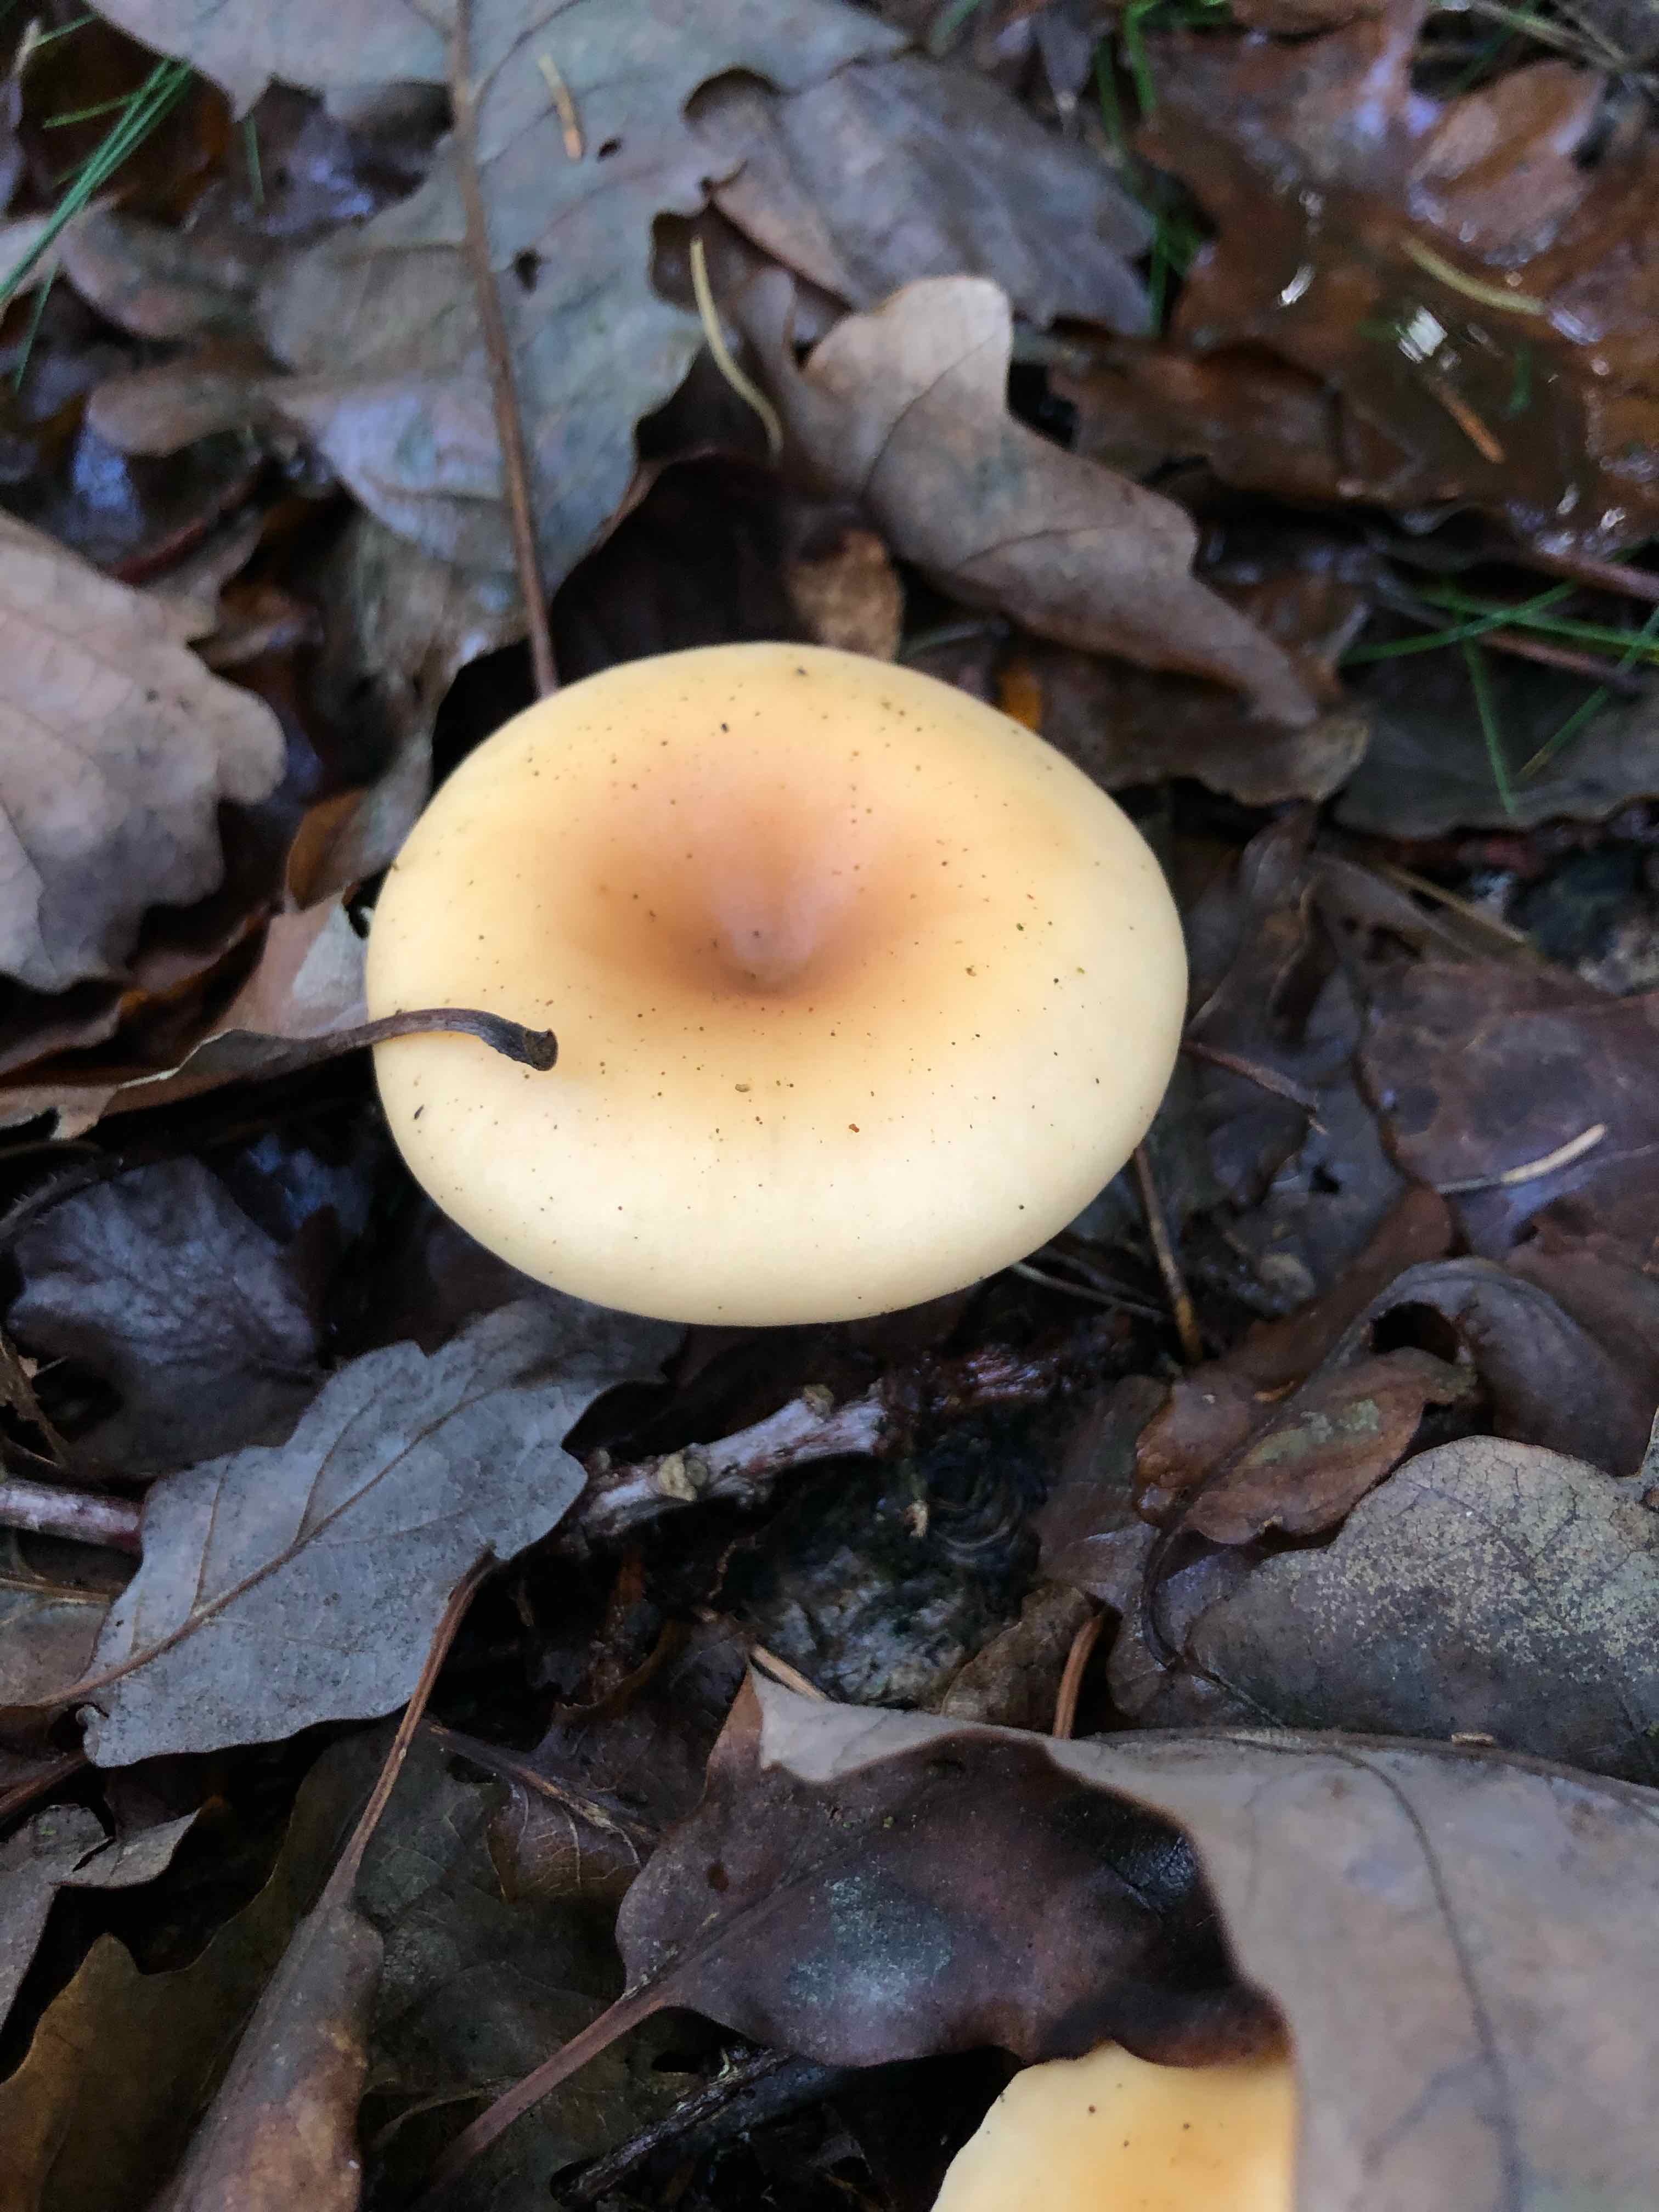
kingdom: Fungi
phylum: Basidiomycota
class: Agaricomycetes
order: Agaricales
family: Tricholomataceae
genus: Paralepista
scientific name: Paralepista flaccida
